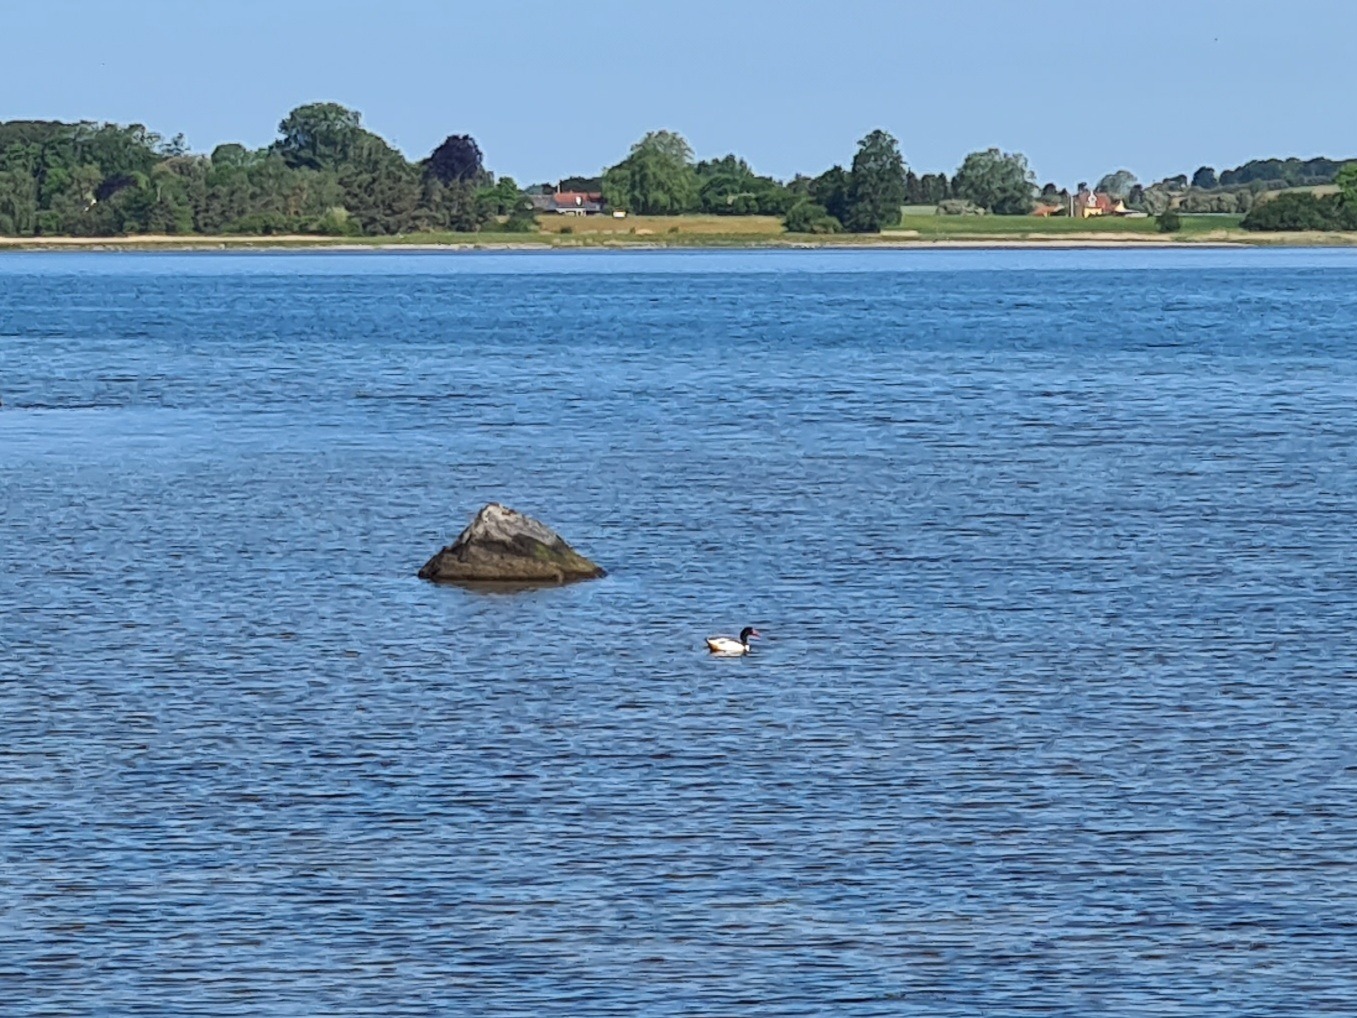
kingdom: Animalia
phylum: Chordata
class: Aves
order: Anseriformes
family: Anatidae
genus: Tadorna
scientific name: Tadorna tadorna
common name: Gravand
